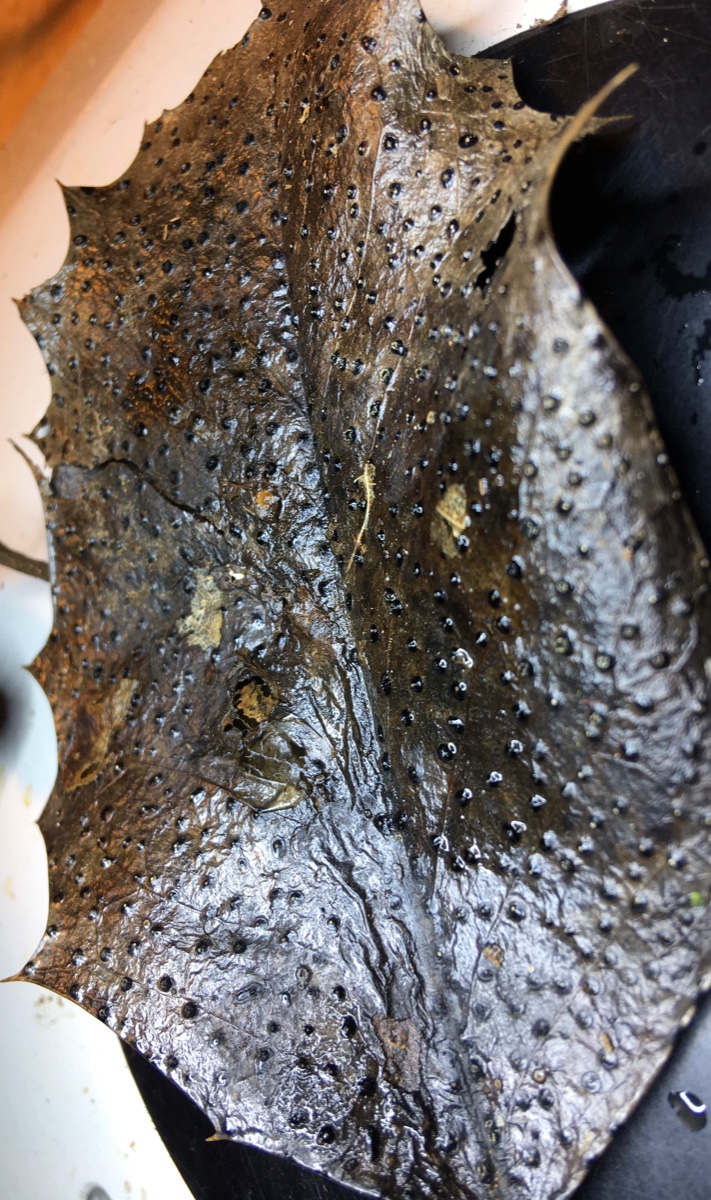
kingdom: Fungi
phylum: Ascomycota
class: Leotiomycetes
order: Phacidiales
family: Phacidiaceae
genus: Phacidium
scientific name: Phacidium lauri
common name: kristtorn-tandskive
